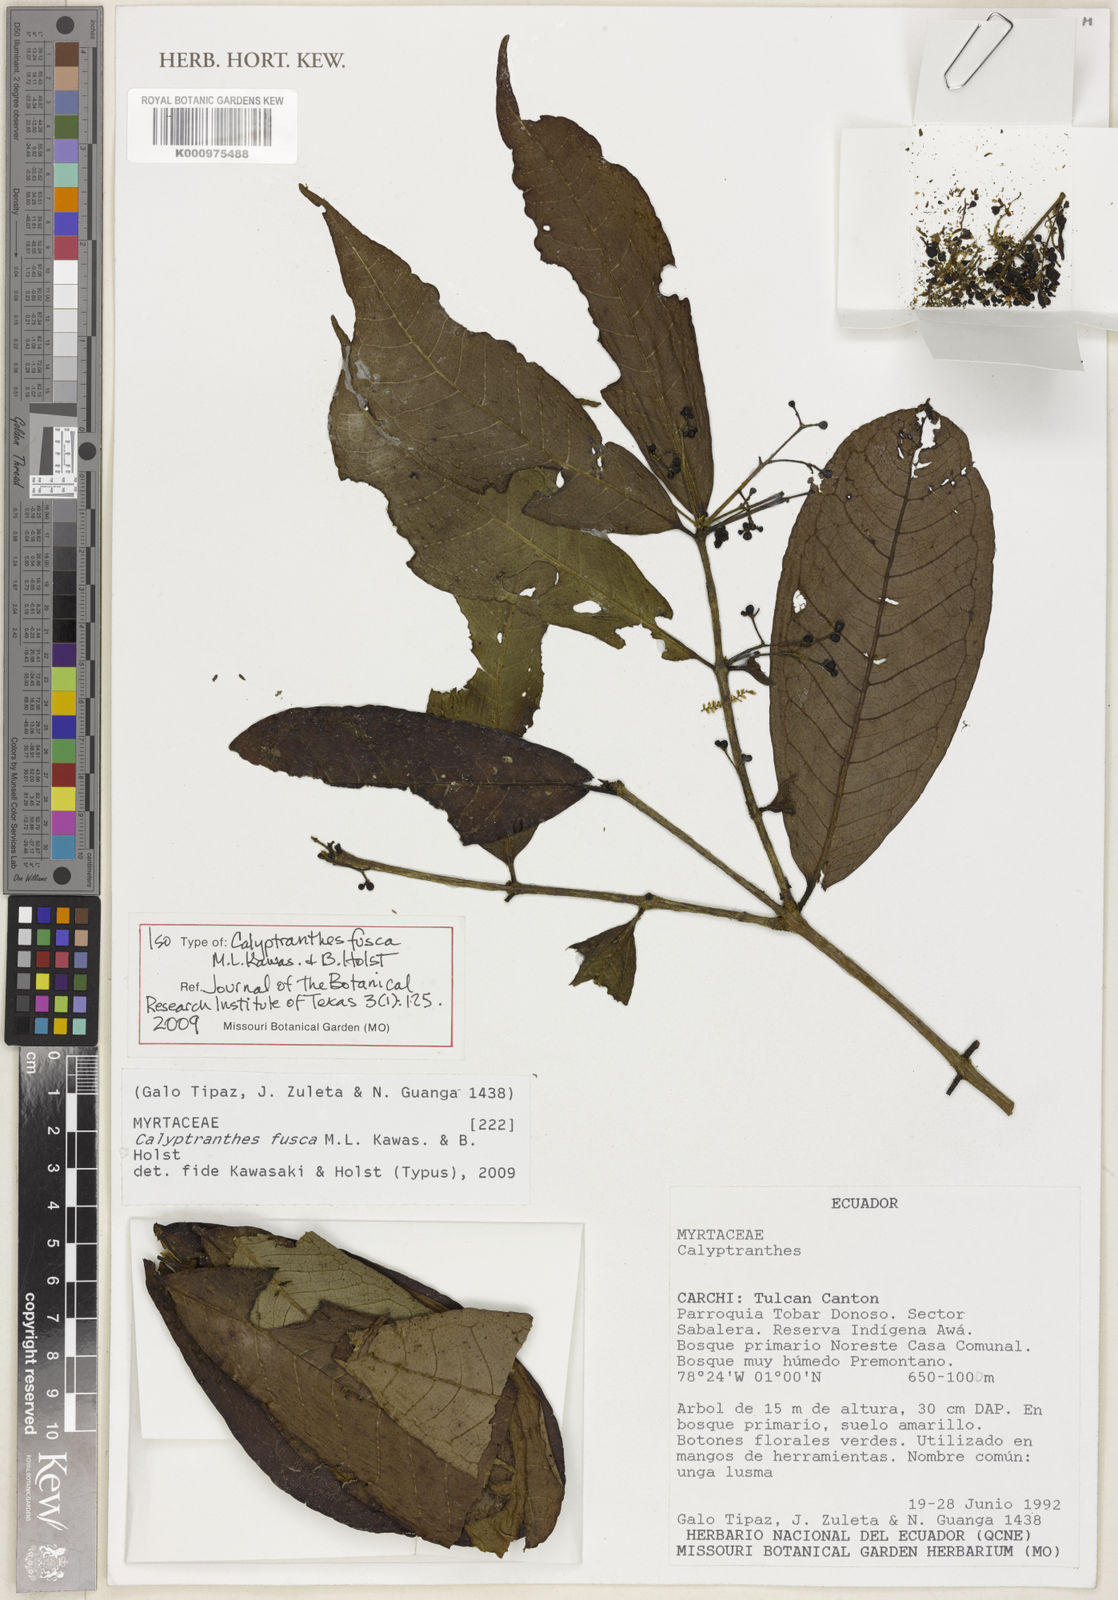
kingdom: Plantae
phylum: Tracheophyta
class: Magnoliopsida
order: Myrtales
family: Myrtaceae
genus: Myrcia
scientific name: Myrcia neofusca
